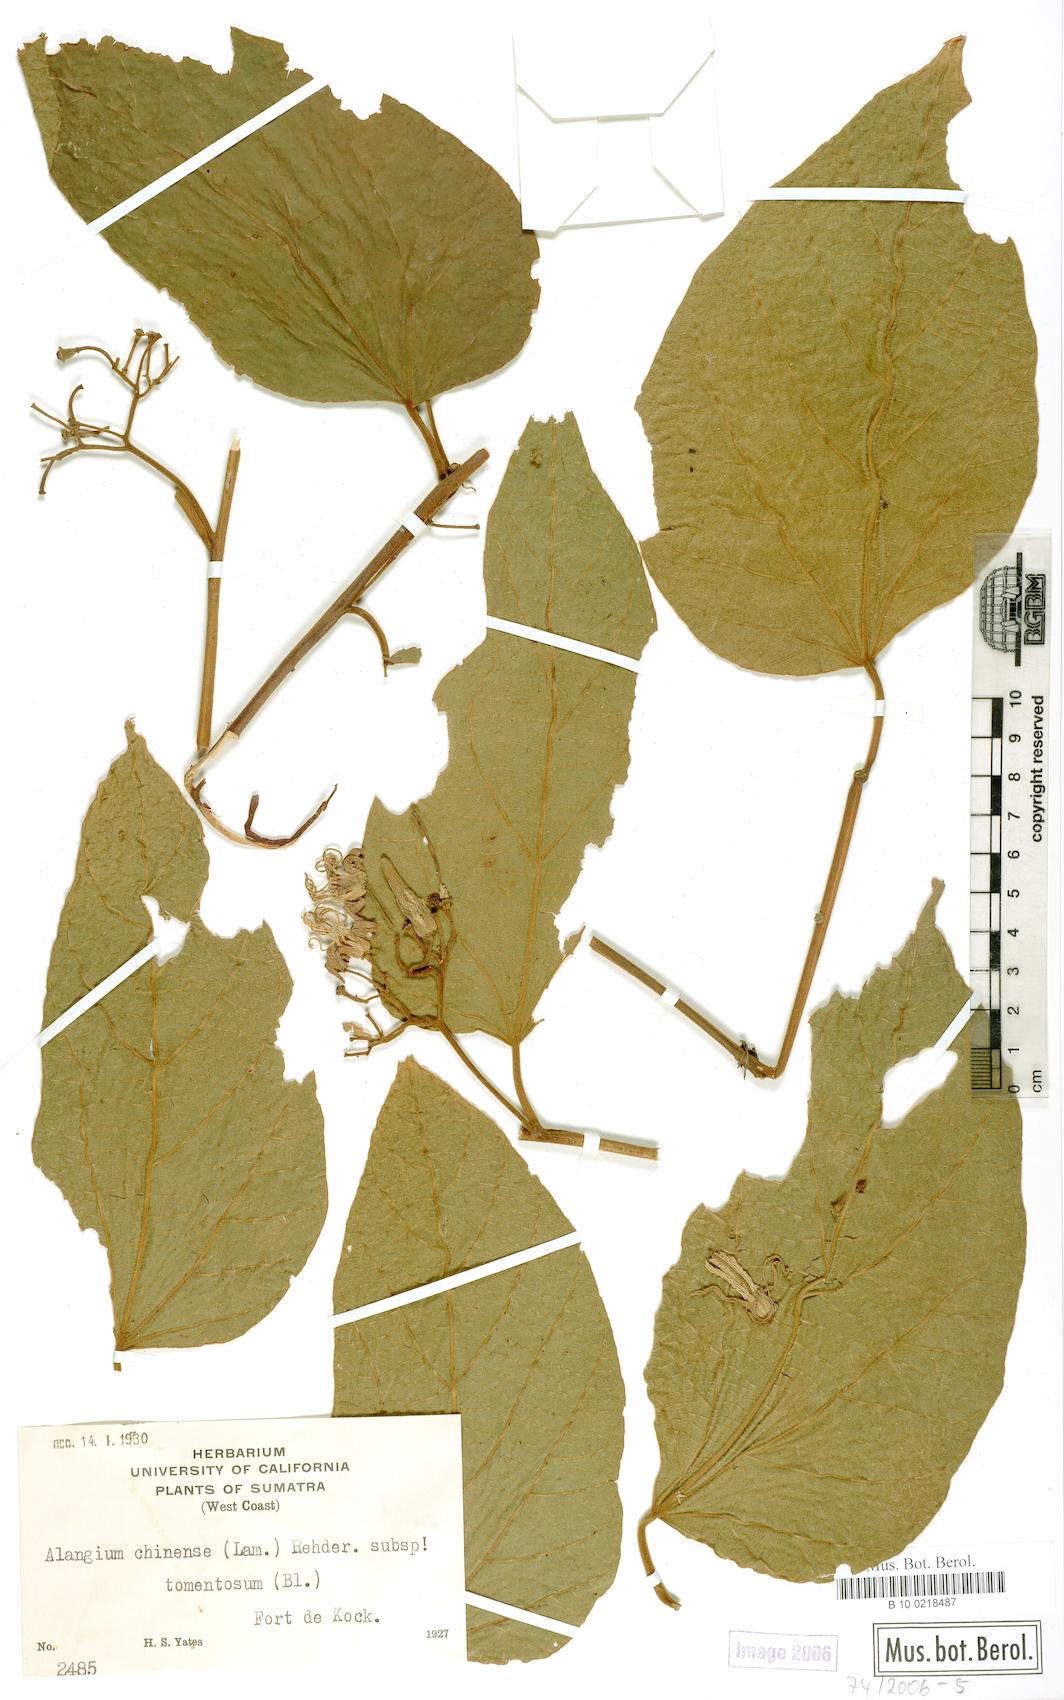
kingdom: Plantae
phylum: Tracheophyta
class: Magnoliopsida
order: Cornales
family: Cornaceae
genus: Alangium
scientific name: Alangium kurzii
